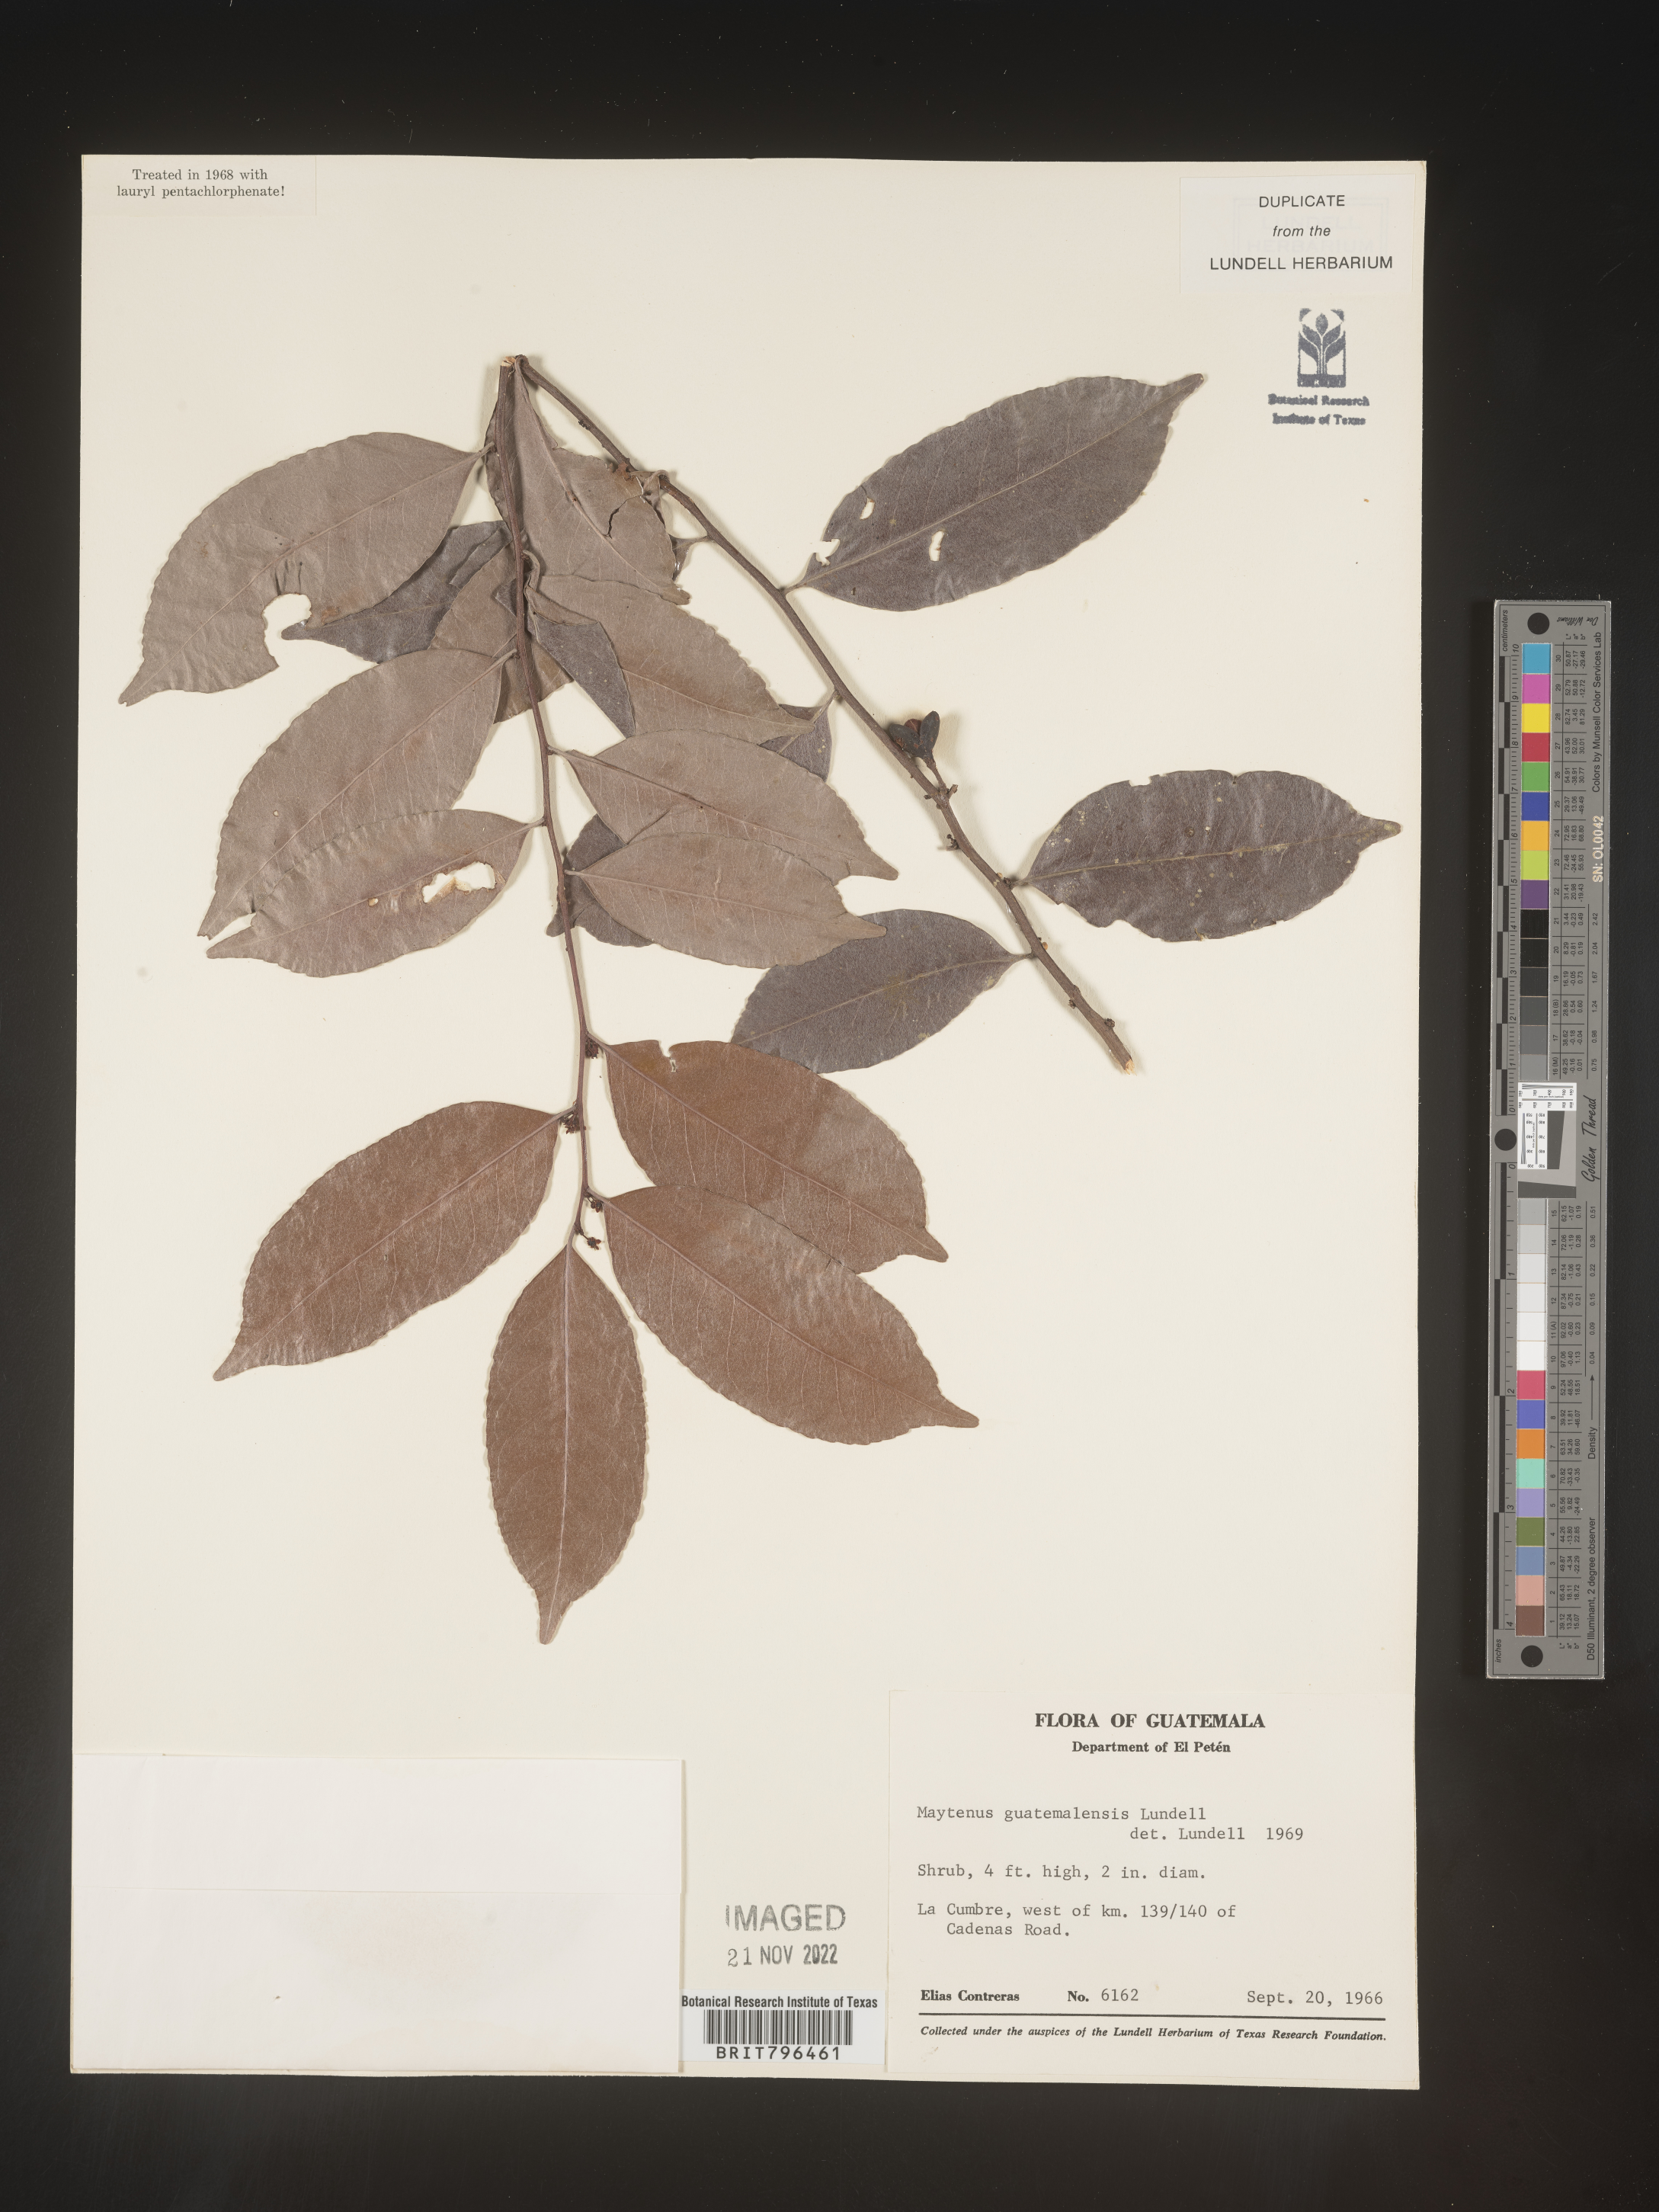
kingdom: Plantae
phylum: Tracheophyta
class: Magnoliopsida
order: Celastrales
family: Celastraceae
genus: Maytenus
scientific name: Maytenus
